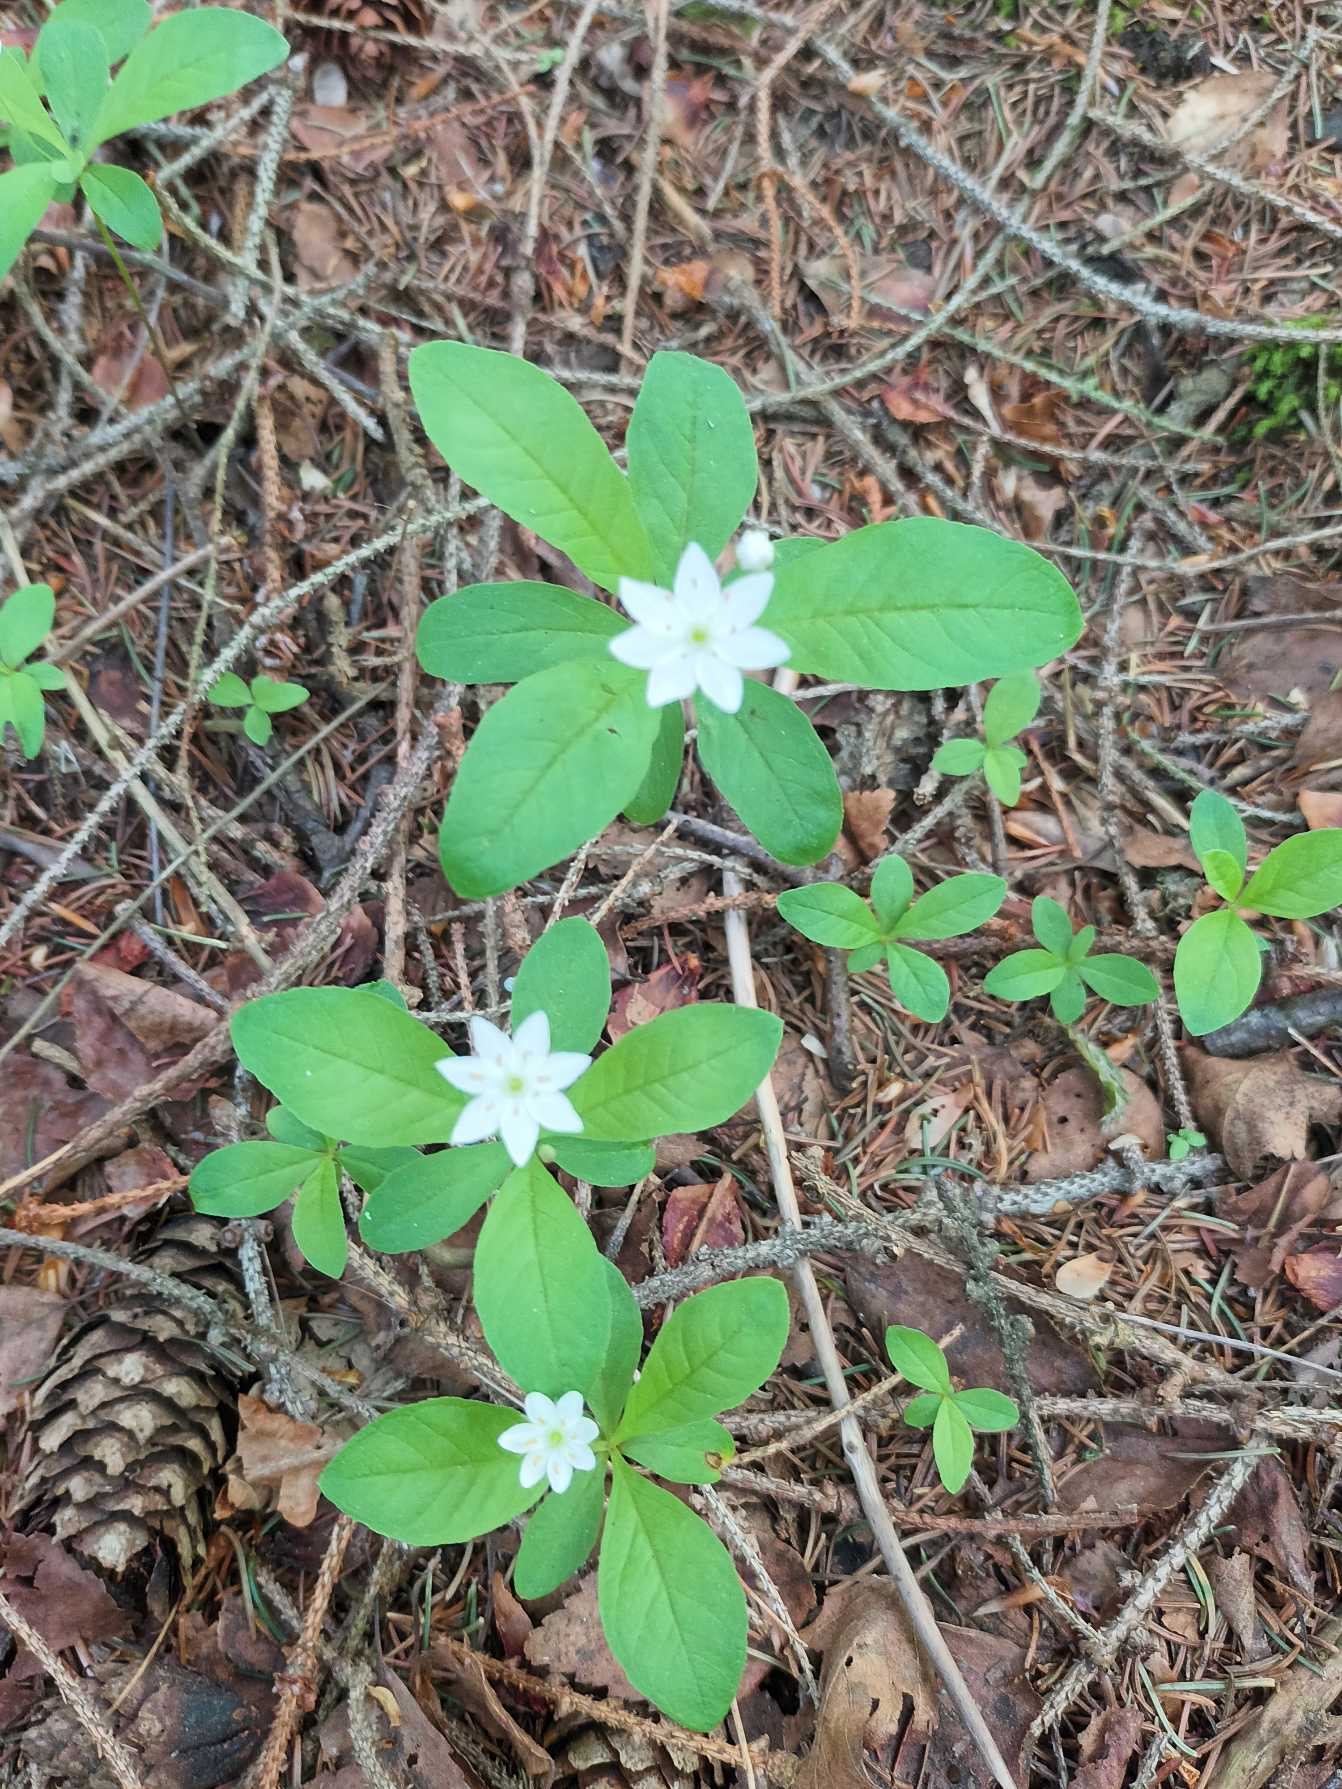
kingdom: Plantae
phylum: Tracheophyta
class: Magnoliopsida
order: Ericales
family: Primulaceae
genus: Lysimachia
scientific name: Lysimachia europaea
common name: Skovstjerne
